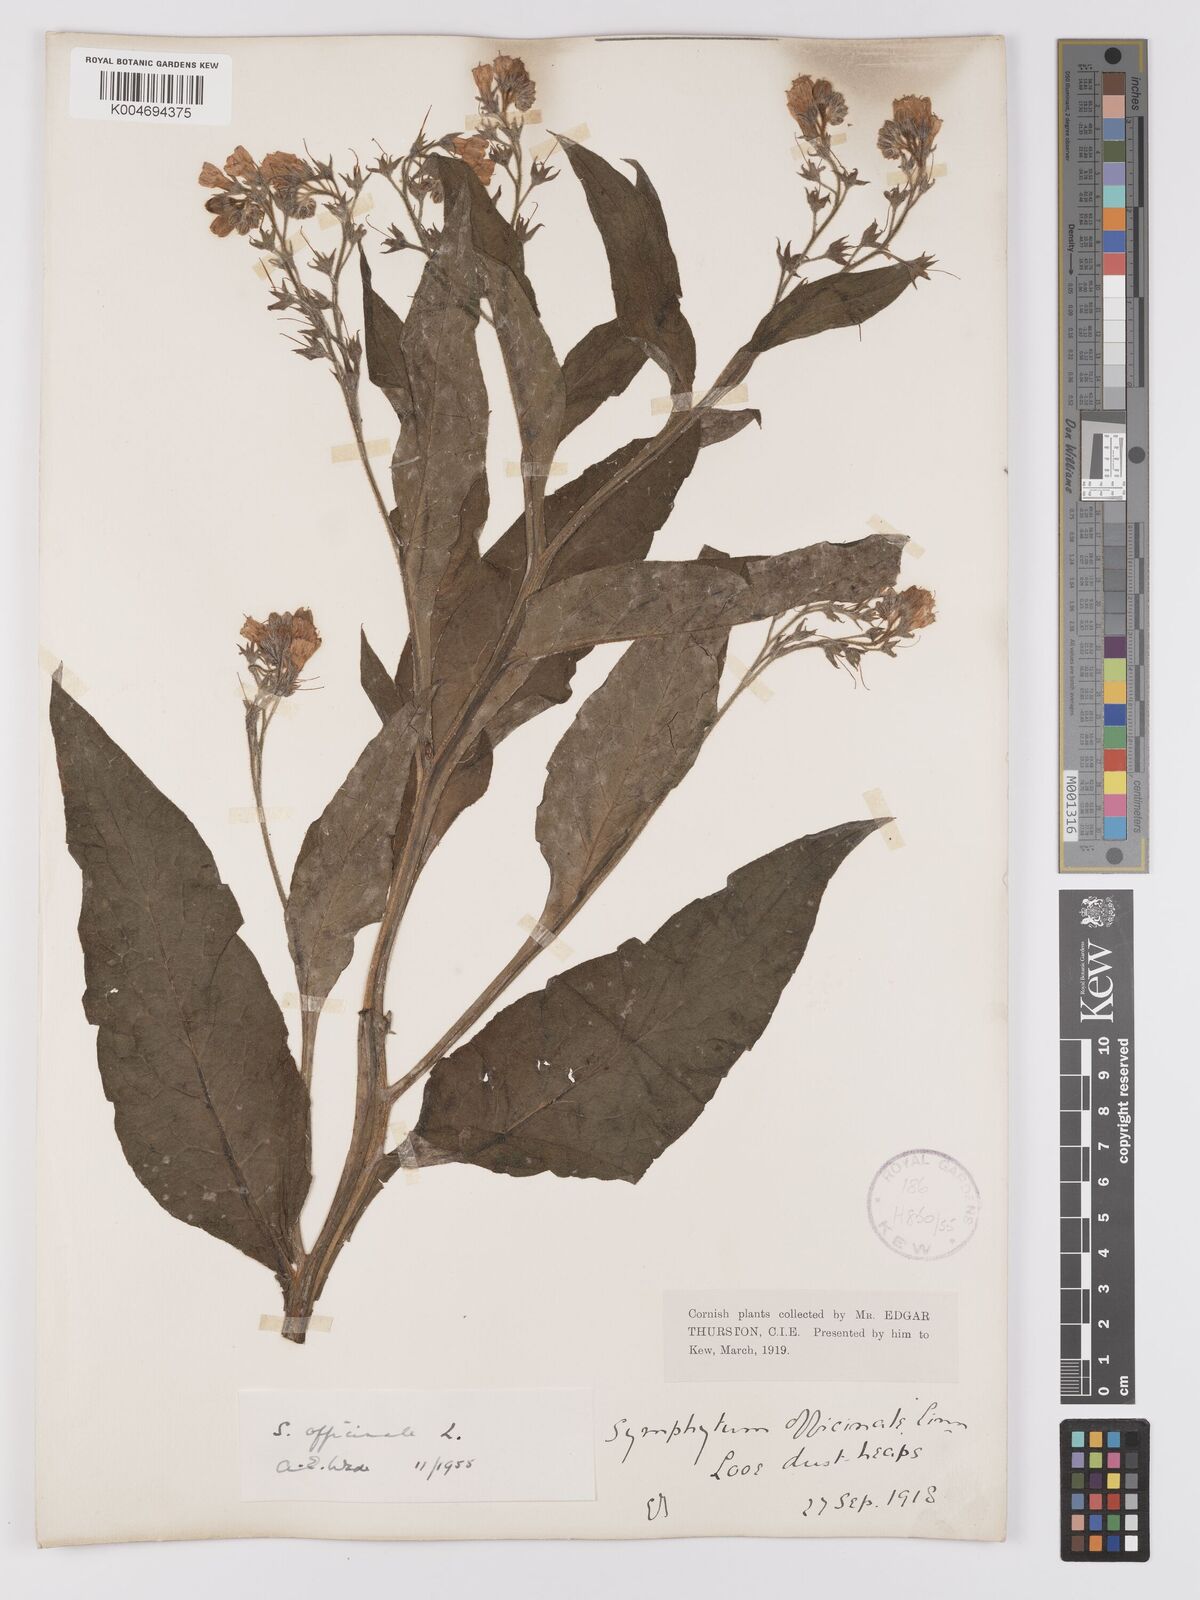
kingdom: Plantae
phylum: Tracheophyta
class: Magnoliopsida
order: Boraginales
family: Boraginaceae
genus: Symphytum
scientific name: Symphytum officinale
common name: Common comfrey
